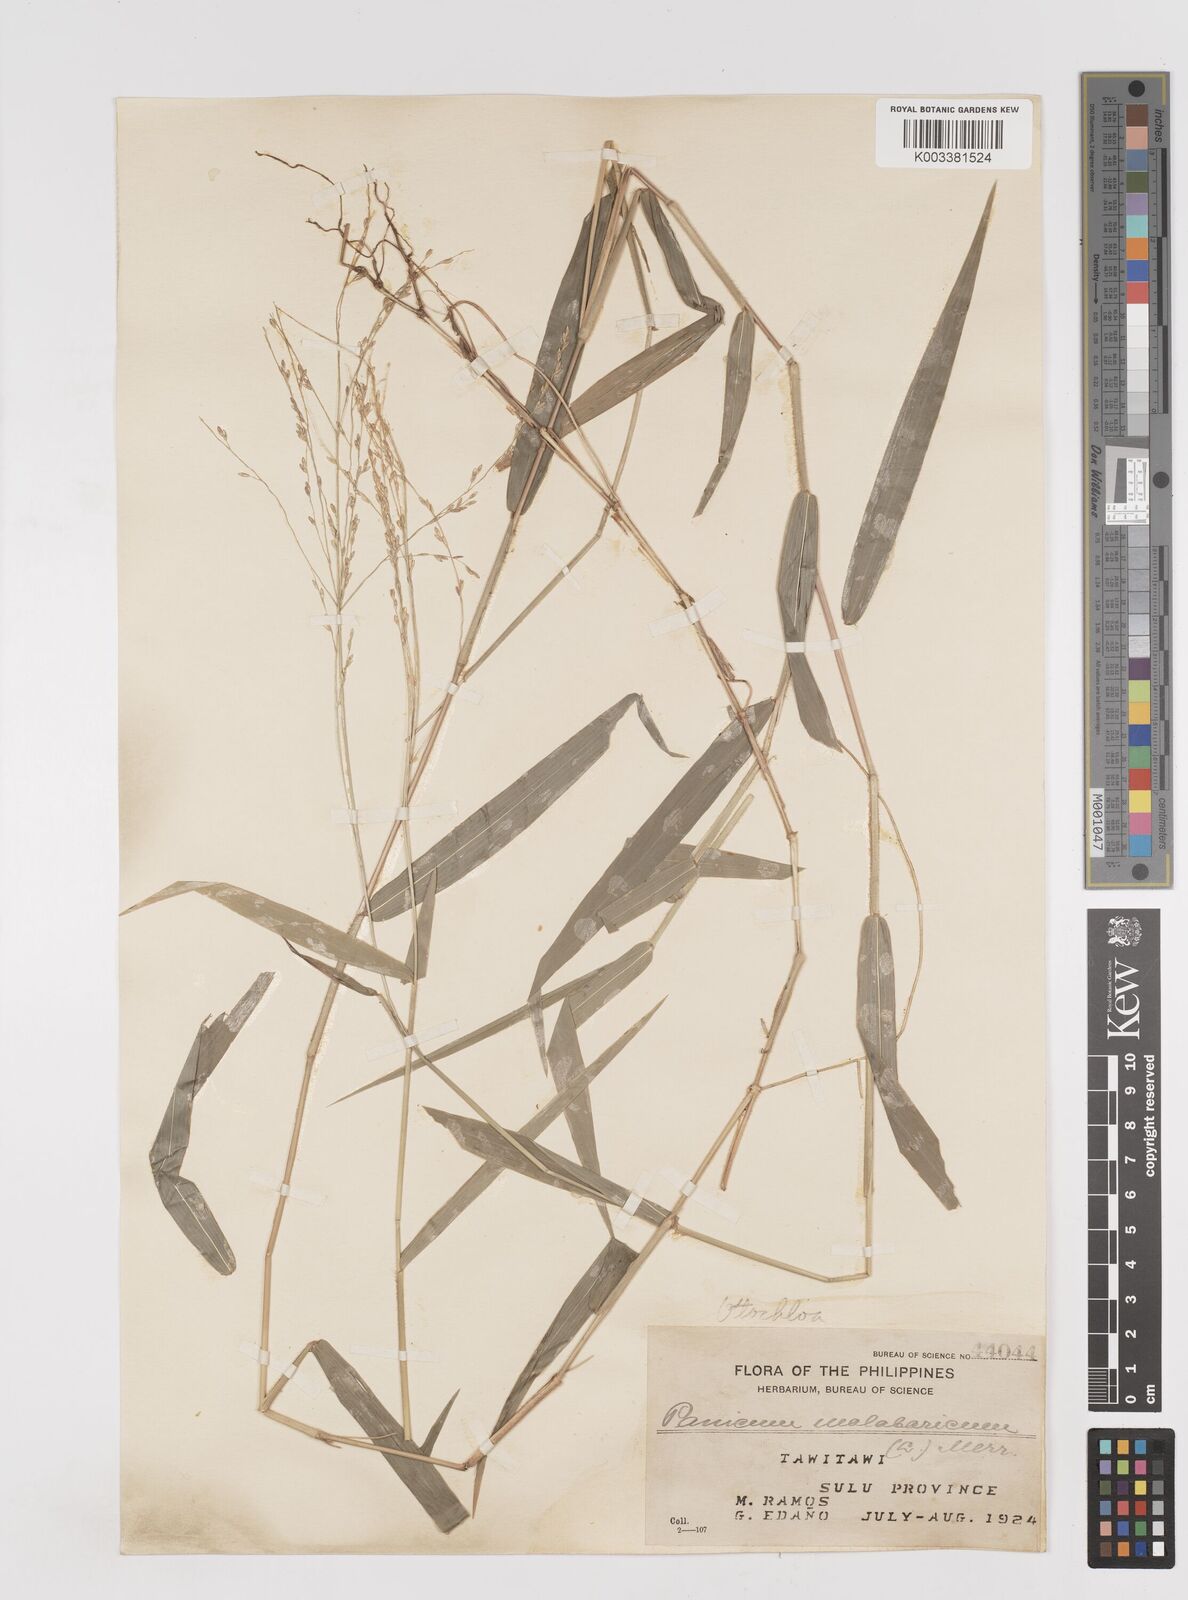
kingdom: Plantae
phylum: Tracheophyta
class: Liliopsida
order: Poales
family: Poaceae
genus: Ottochloa
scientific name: Ottochloa nodosa
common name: Slender-panic grass
